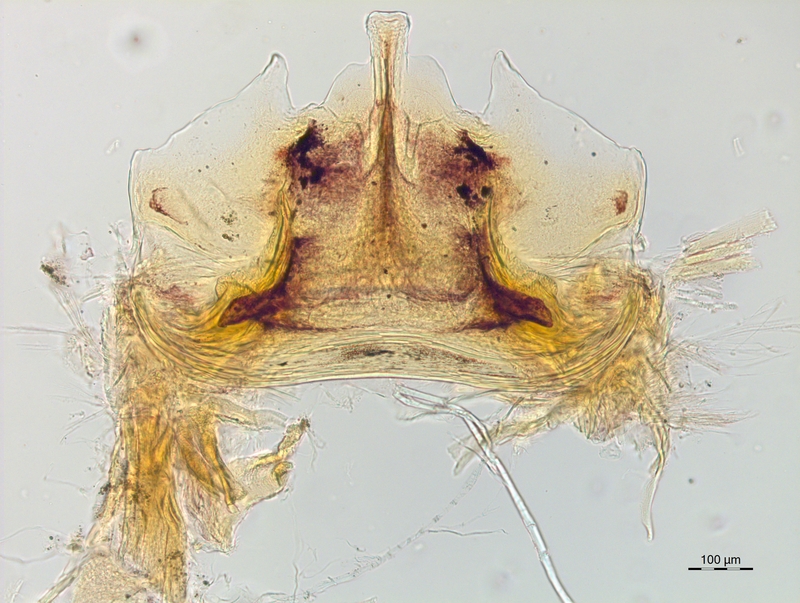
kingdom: Animalia
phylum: Arthropoda
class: Diplopoda
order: Chordeumatida
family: Craspedosomatidae
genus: Craspedosoma
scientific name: Craspedosoma taurinorum
